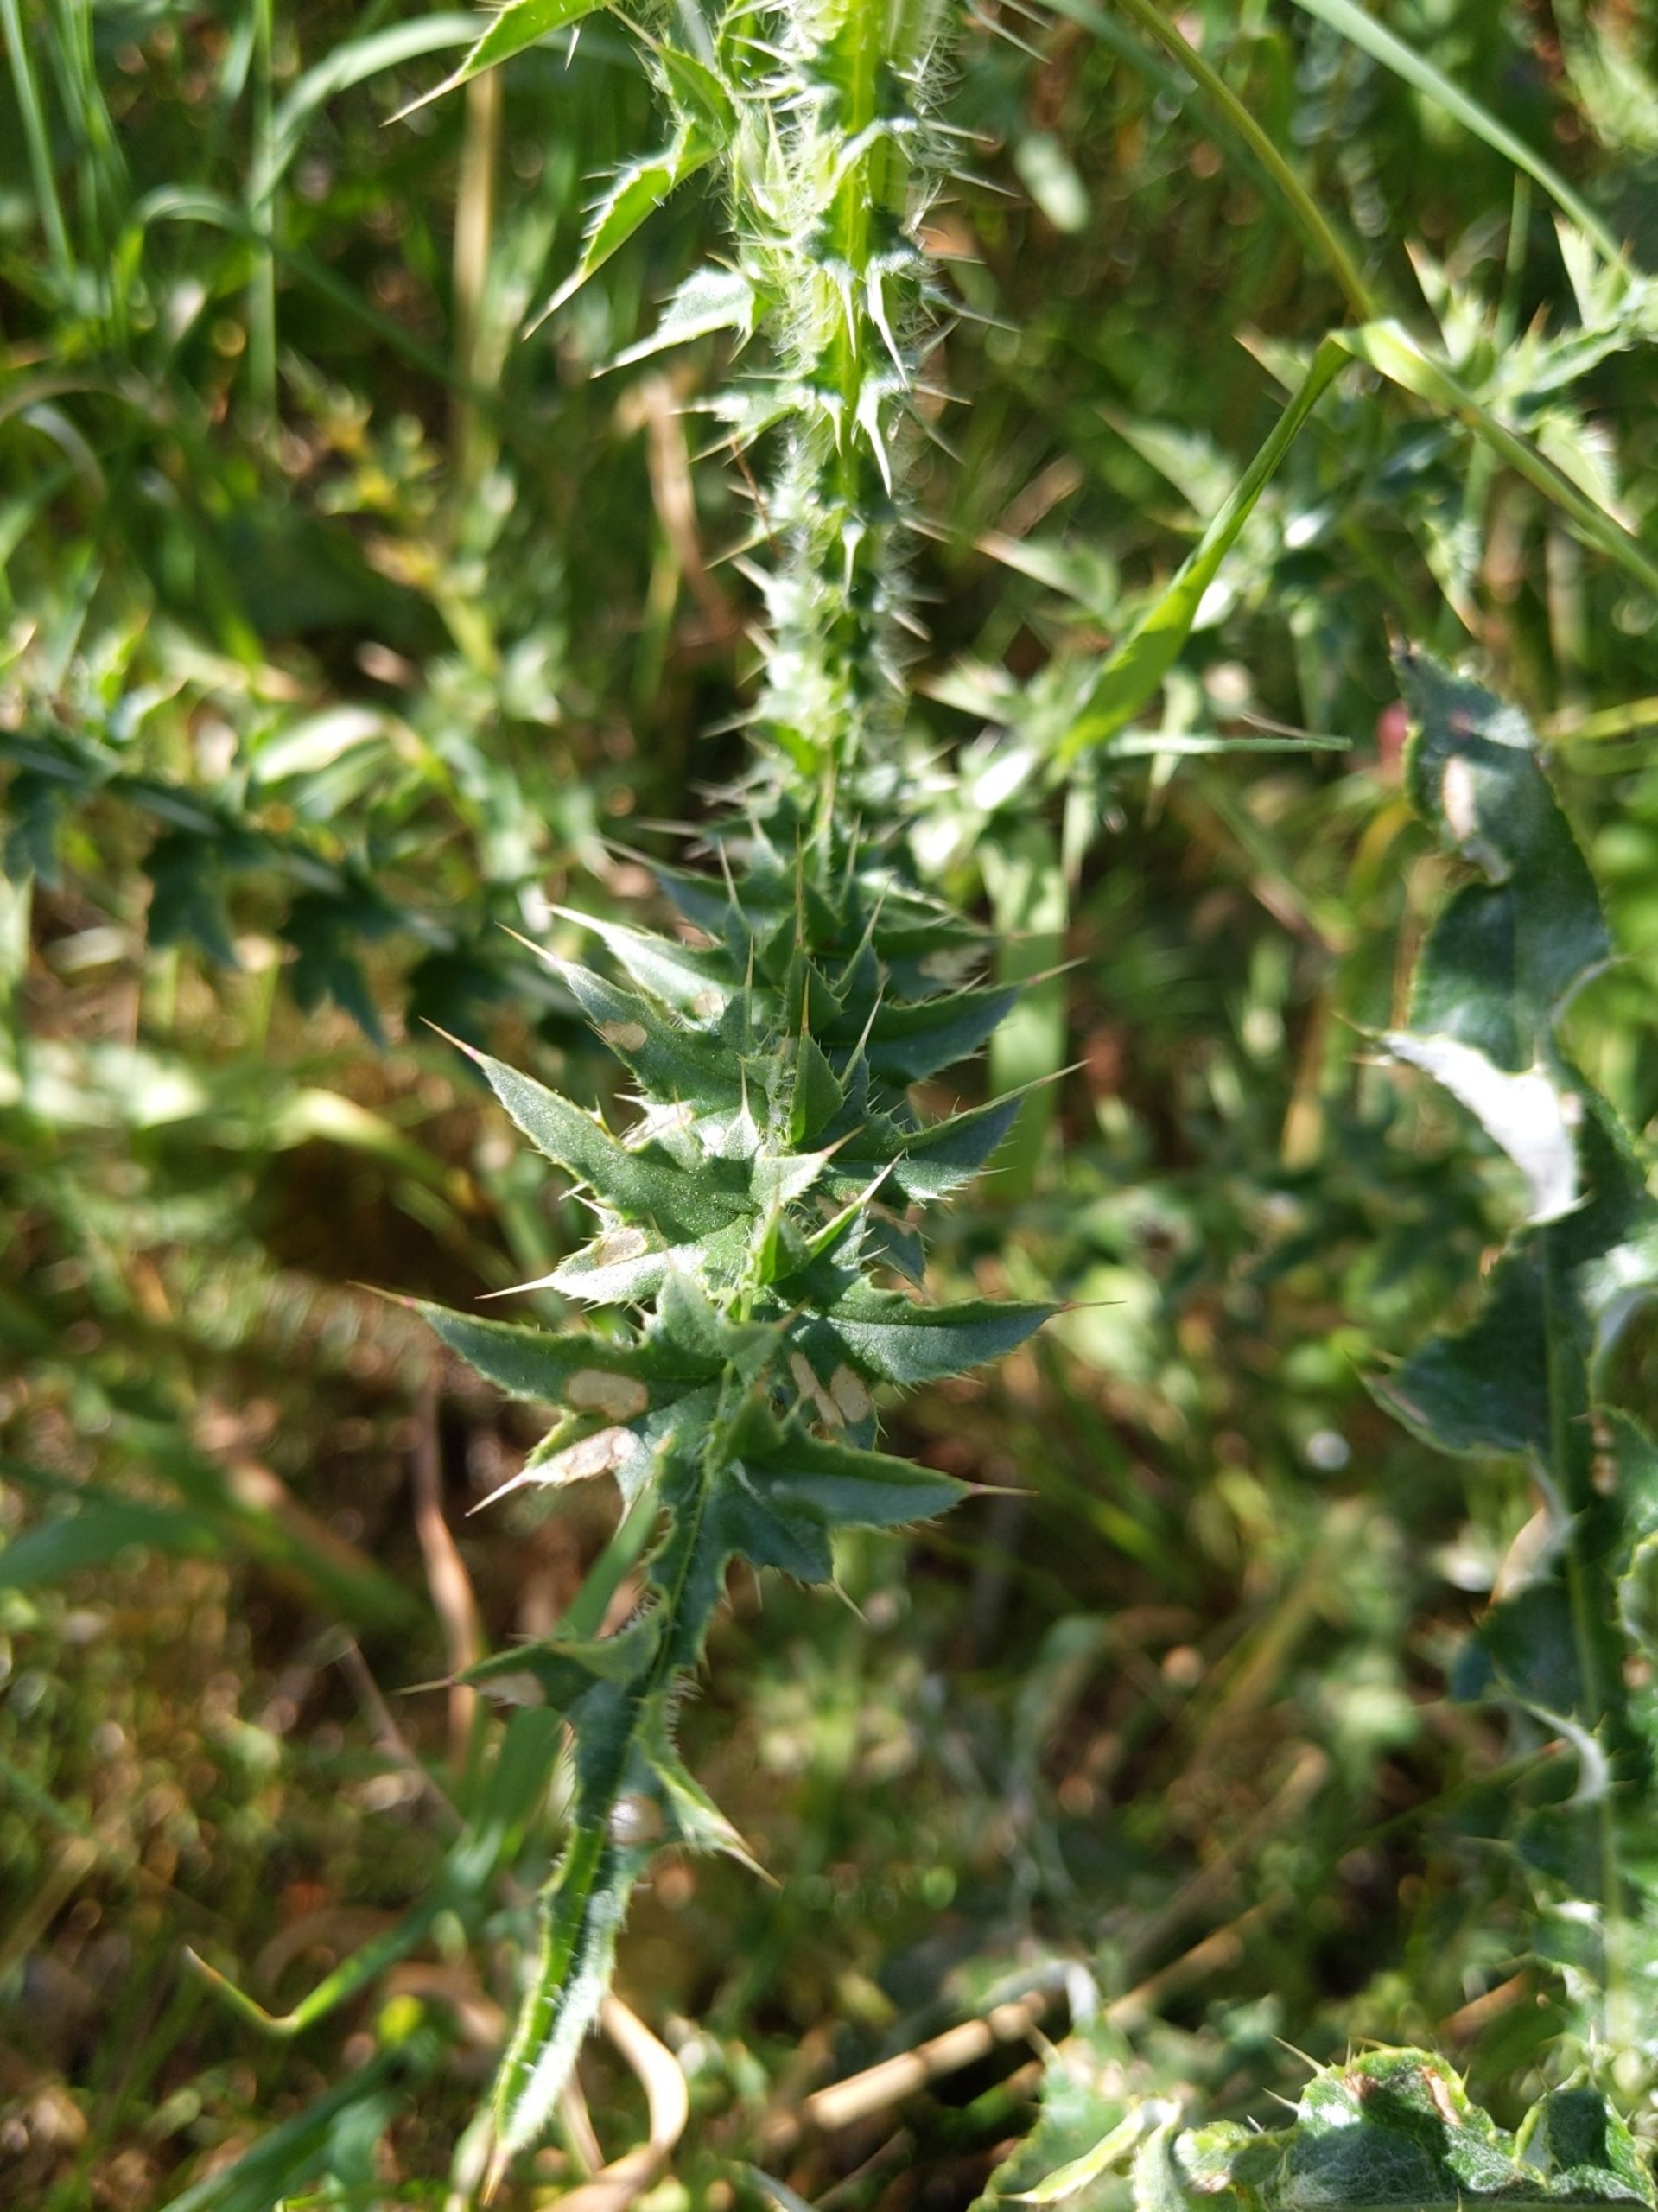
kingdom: Plantae
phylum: Tracheophyta
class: Magnoliopsida
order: Asterales
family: Asteraceae
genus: Carduus
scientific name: Carduus acanthoides
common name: Tornet tidsel
